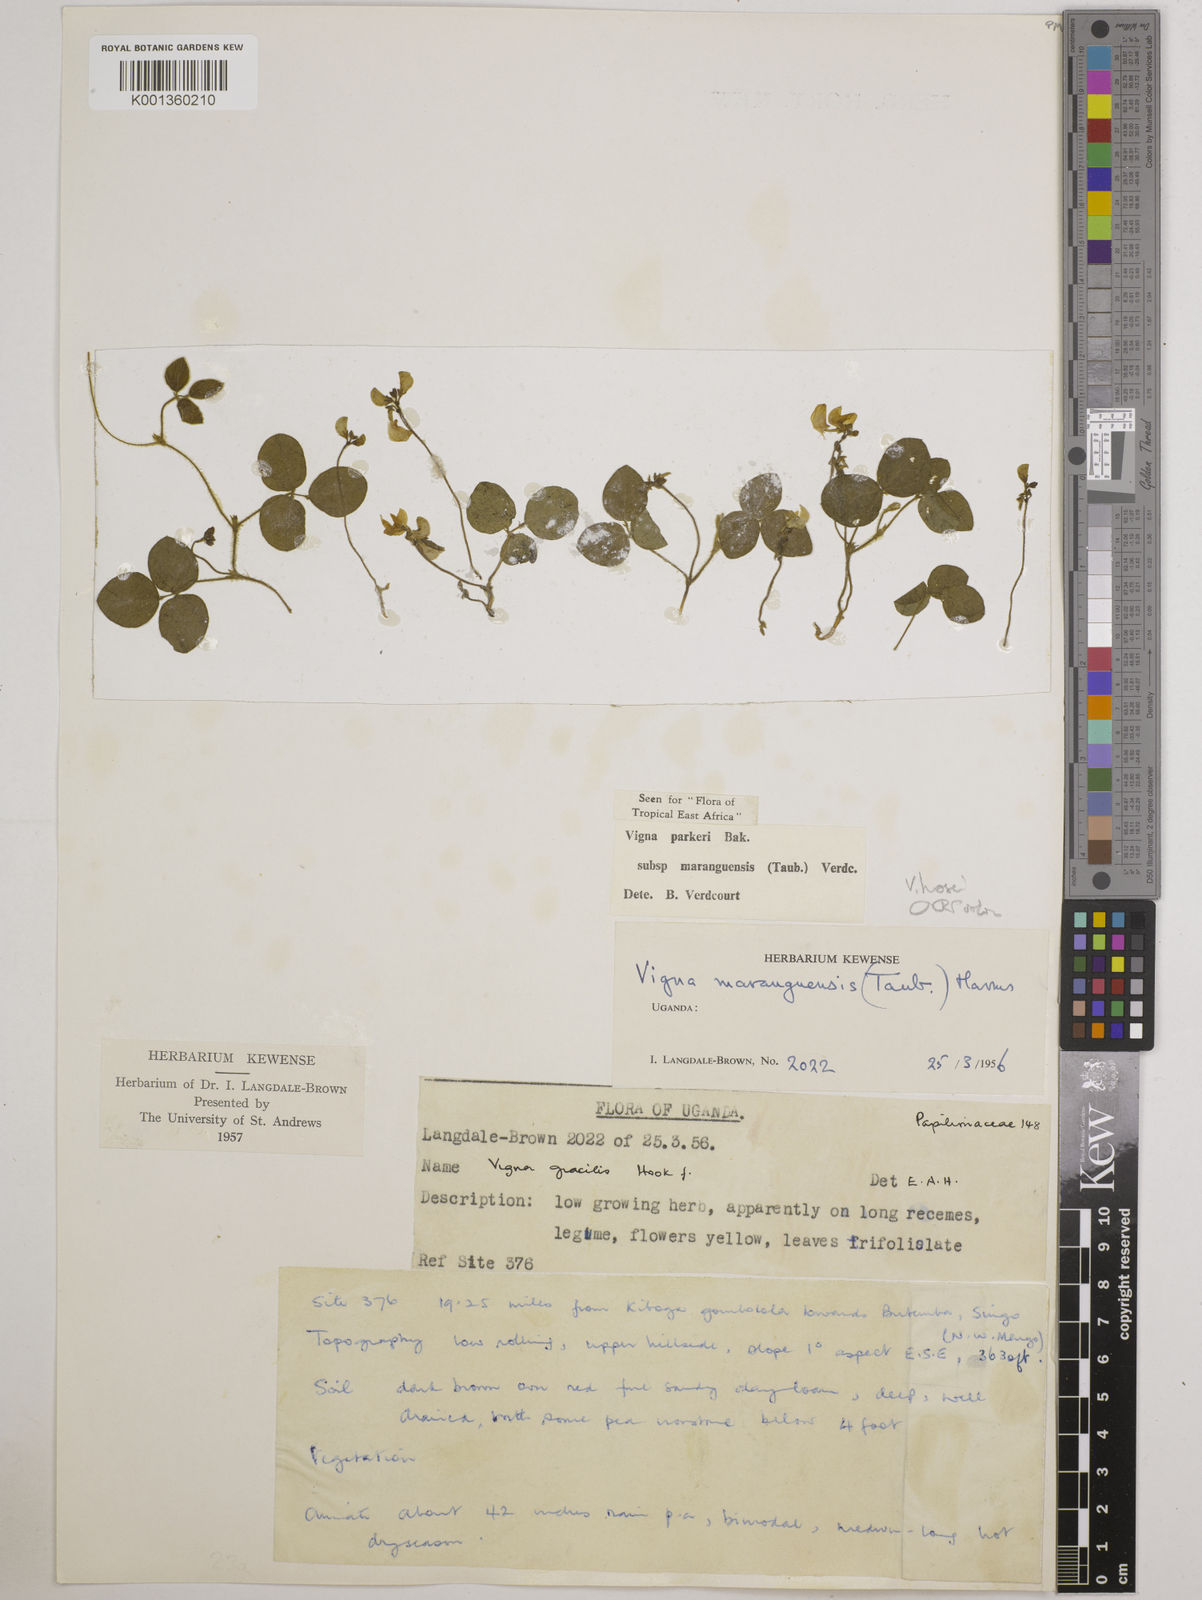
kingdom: Plantae
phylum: Tracheophyta
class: Magnoliopsida
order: Fabales
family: Fabaceae
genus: Vigna
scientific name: Vigna hosei
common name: Sarawak-bean
